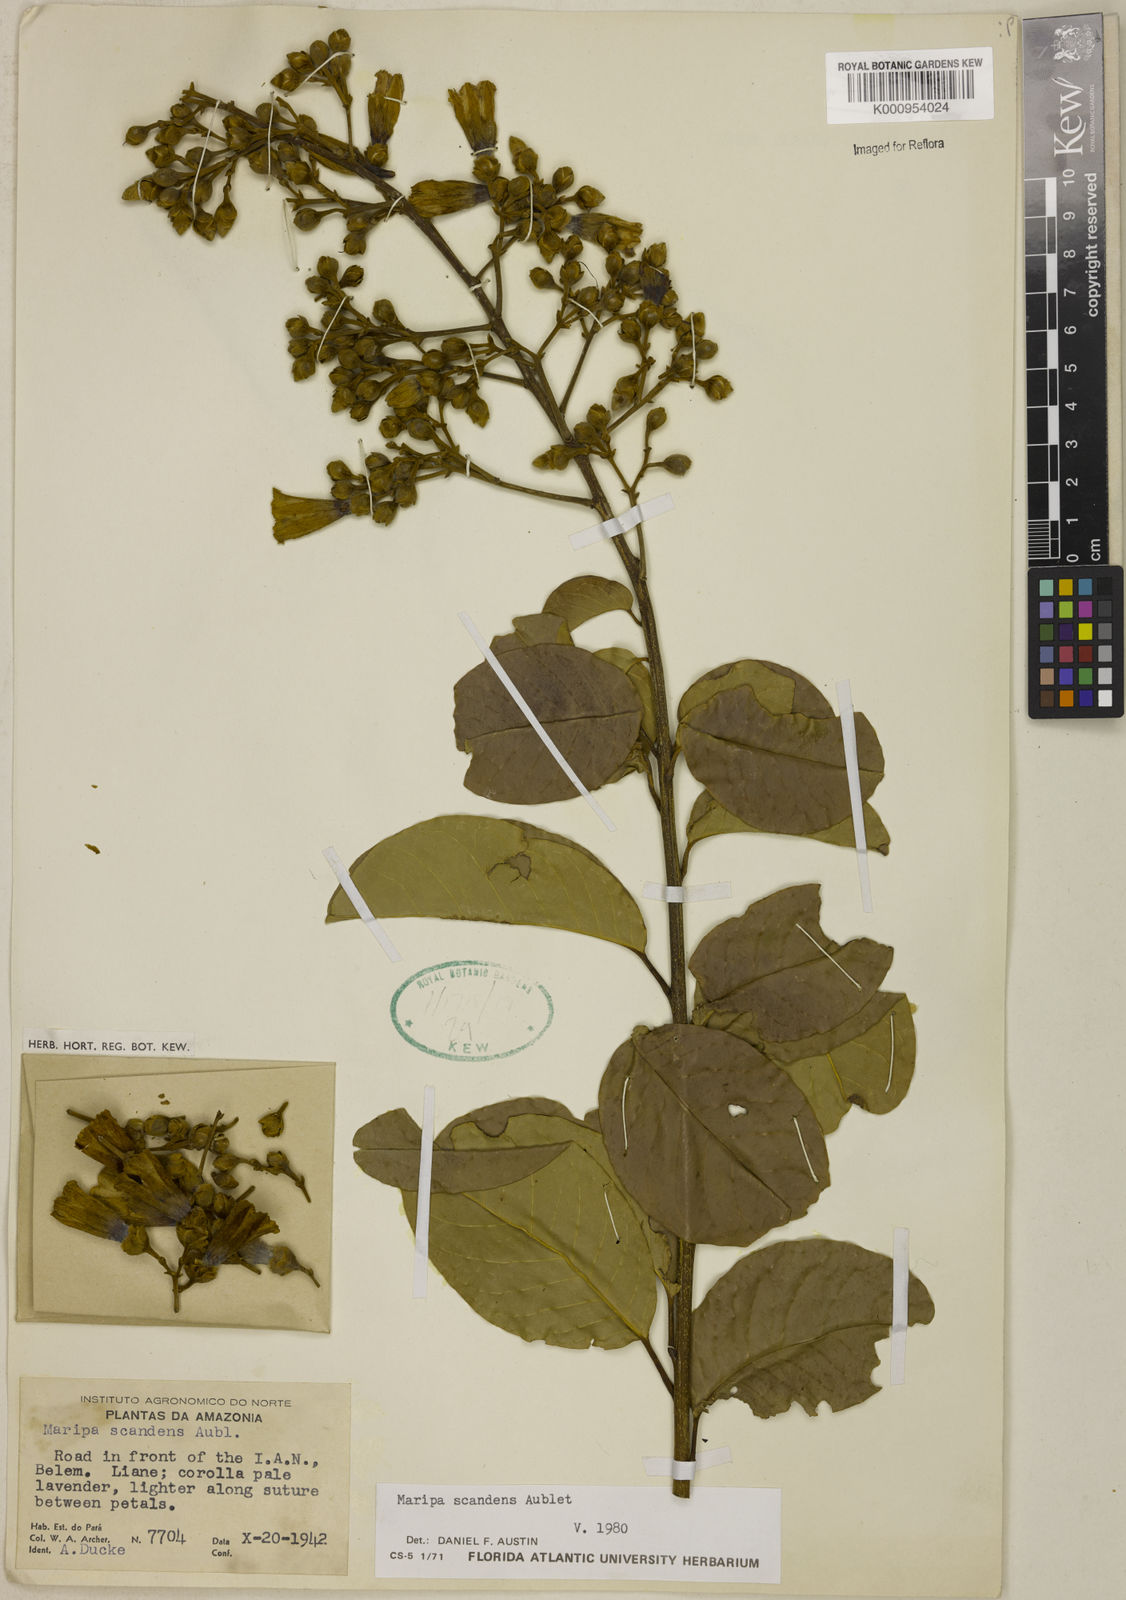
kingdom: Plantae
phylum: Tracheophyta
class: Magnoliopsida
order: Solanales
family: Convolvulaceae
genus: Maripa
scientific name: Maripa scandens
